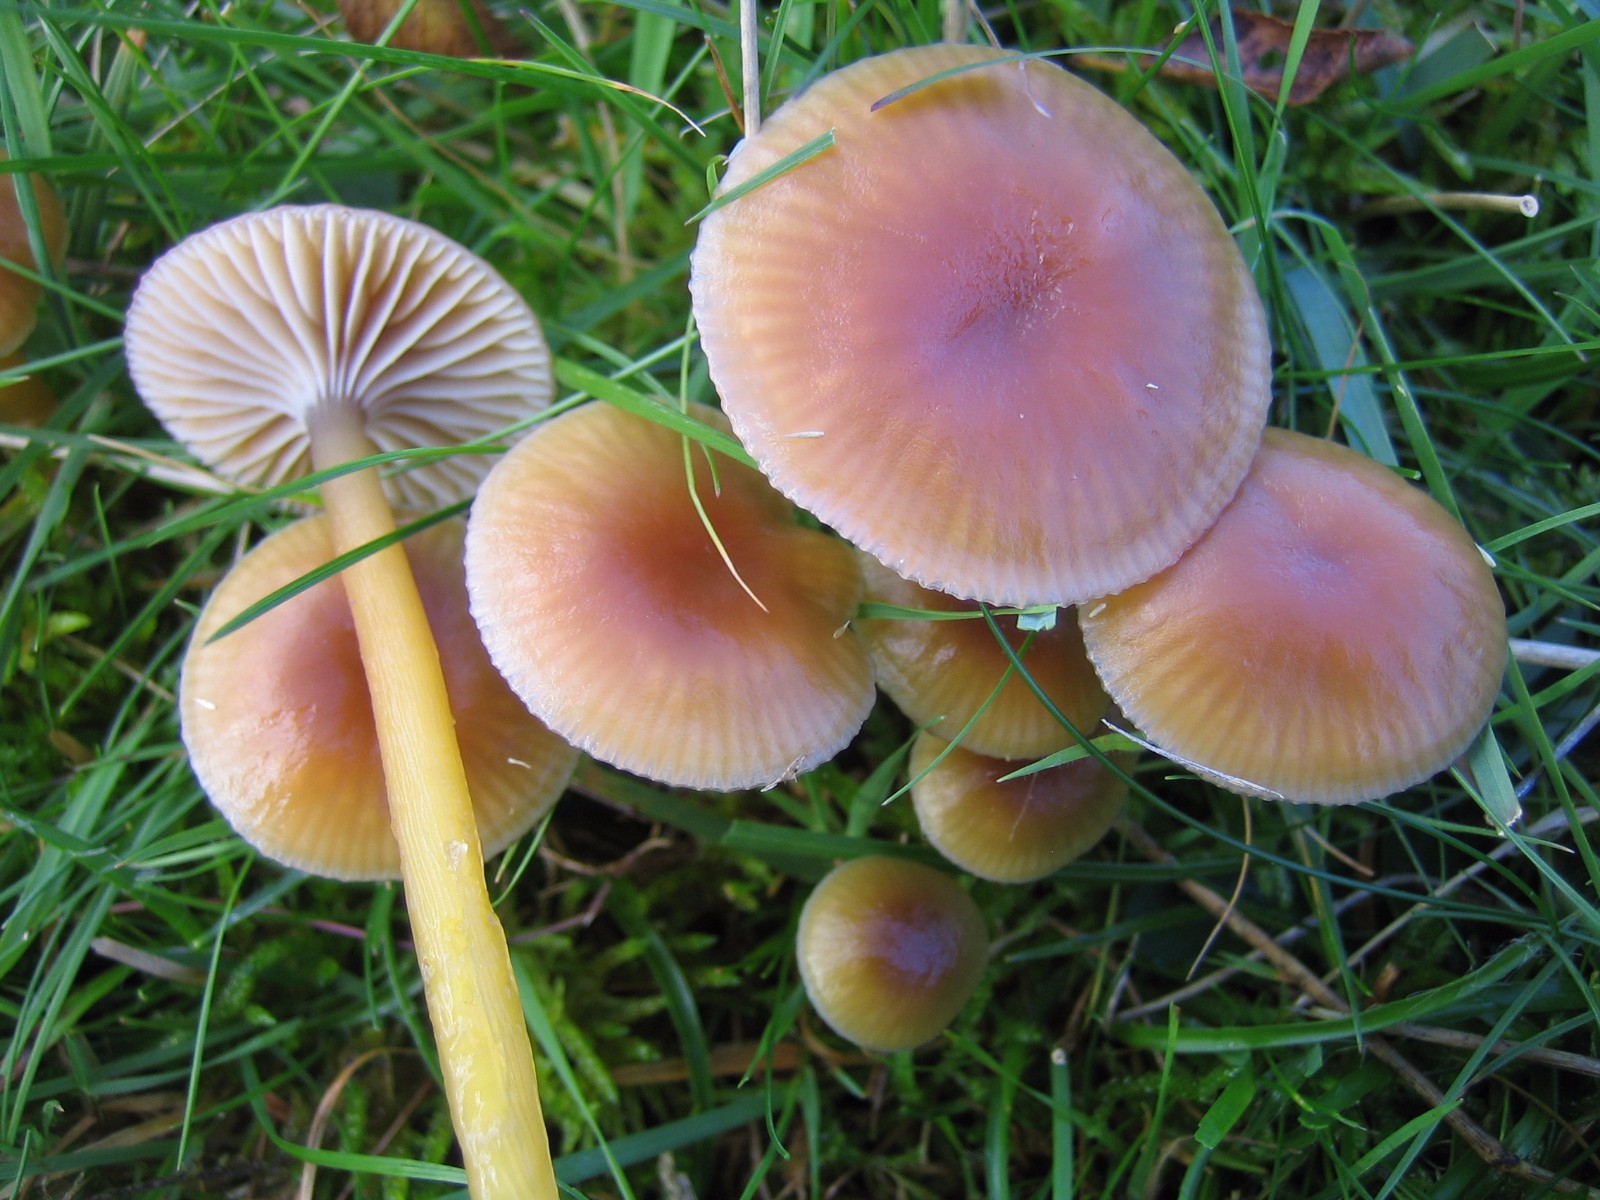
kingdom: Fungi
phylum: Basidiomycota
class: Agaricomycetes
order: Agaricales
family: Hygrophoraceae
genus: Gliophorus
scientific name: Gliophorus laetus
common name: brusk-vokshat
